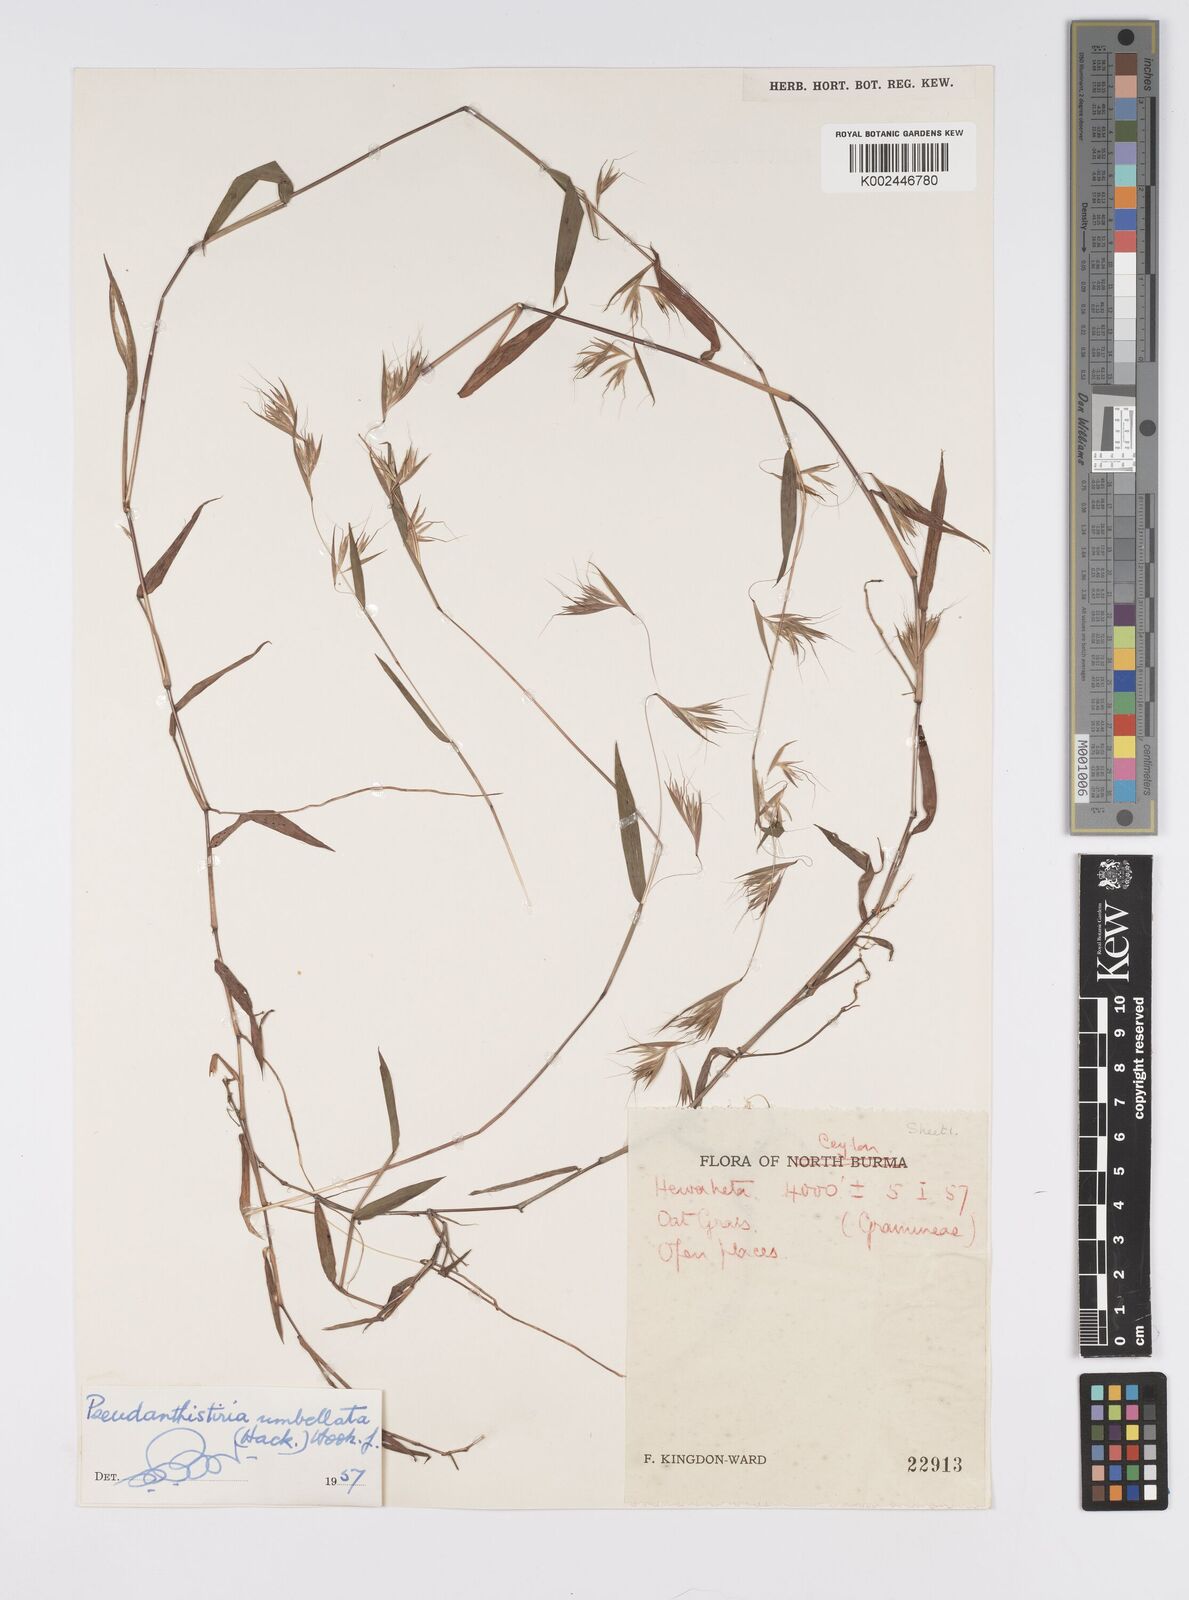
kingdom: Plantae
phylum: Tracheophyta
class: Liliopsida
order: Poales
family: Poaceae
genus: Pseudanthistiria
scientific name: Pseudanthistiria umbellata
